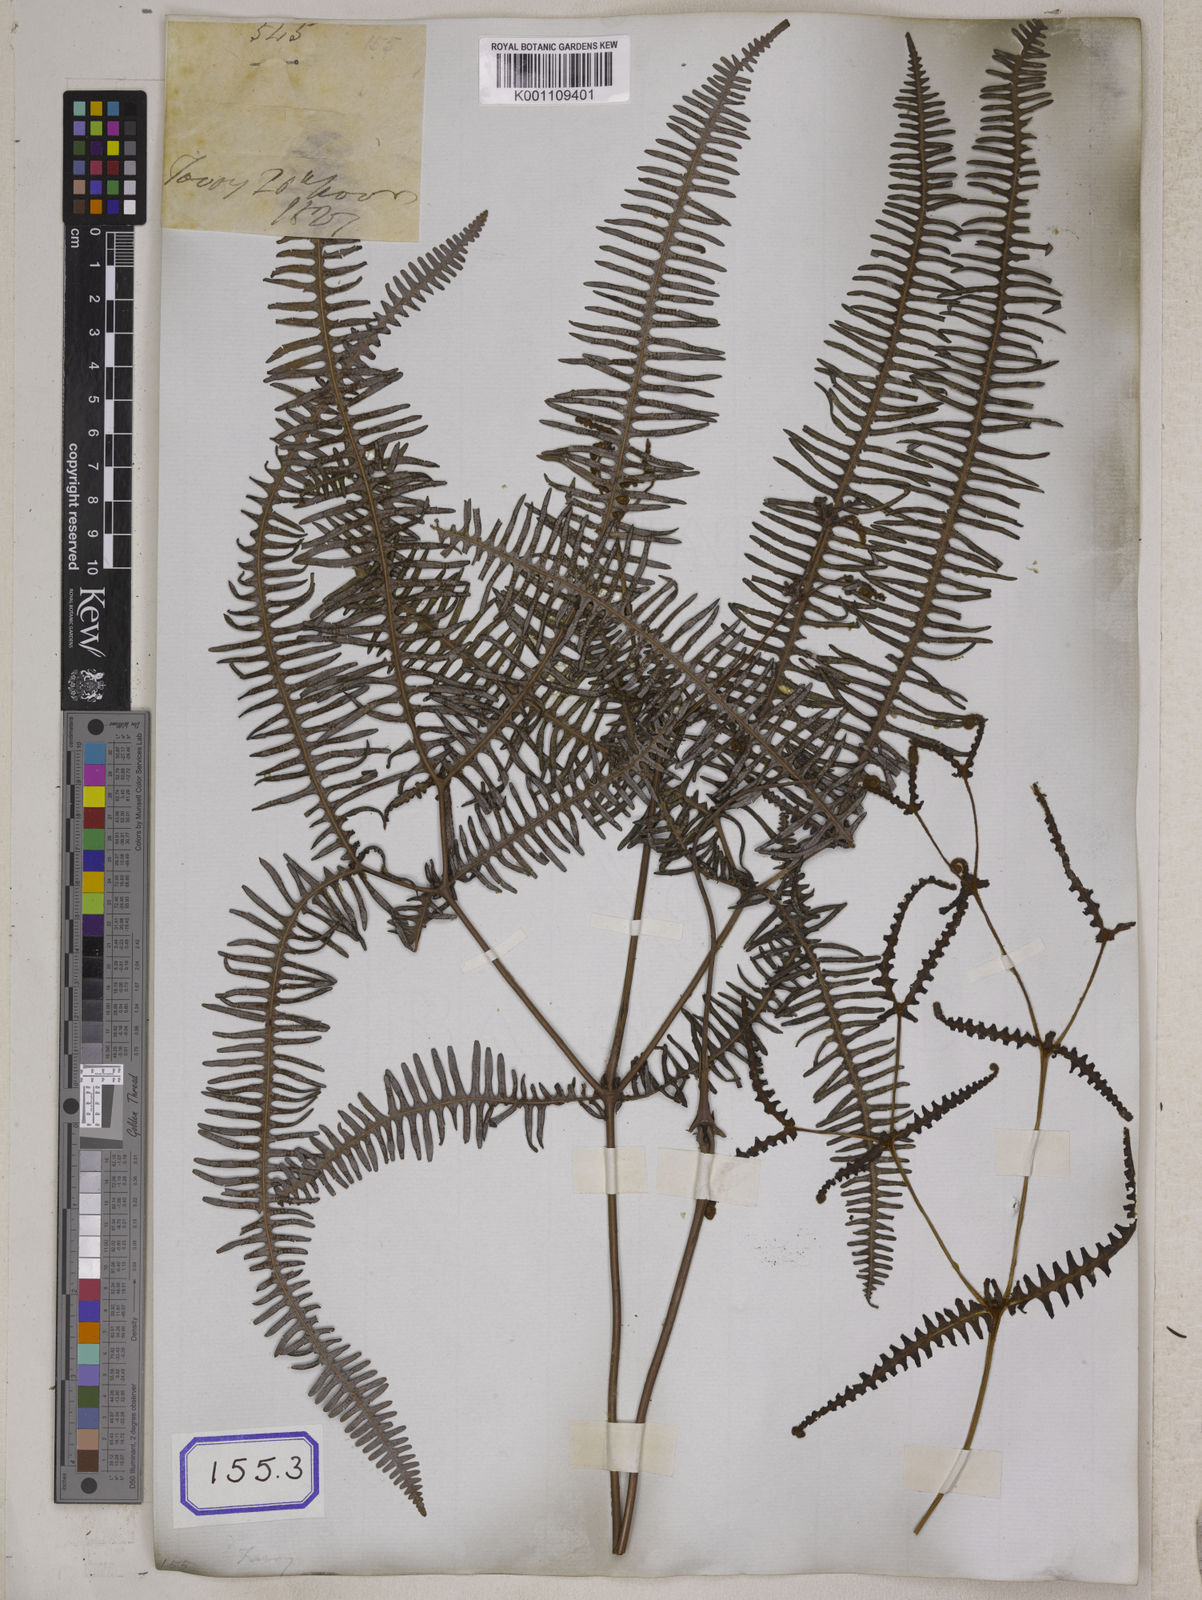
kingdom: Plantae
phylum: Tracheophyta
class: Polypodiopsida
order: Gleicheniales
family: Gleicheniaceae
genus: Dicranopteris
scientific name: Dicranopteris linearis
